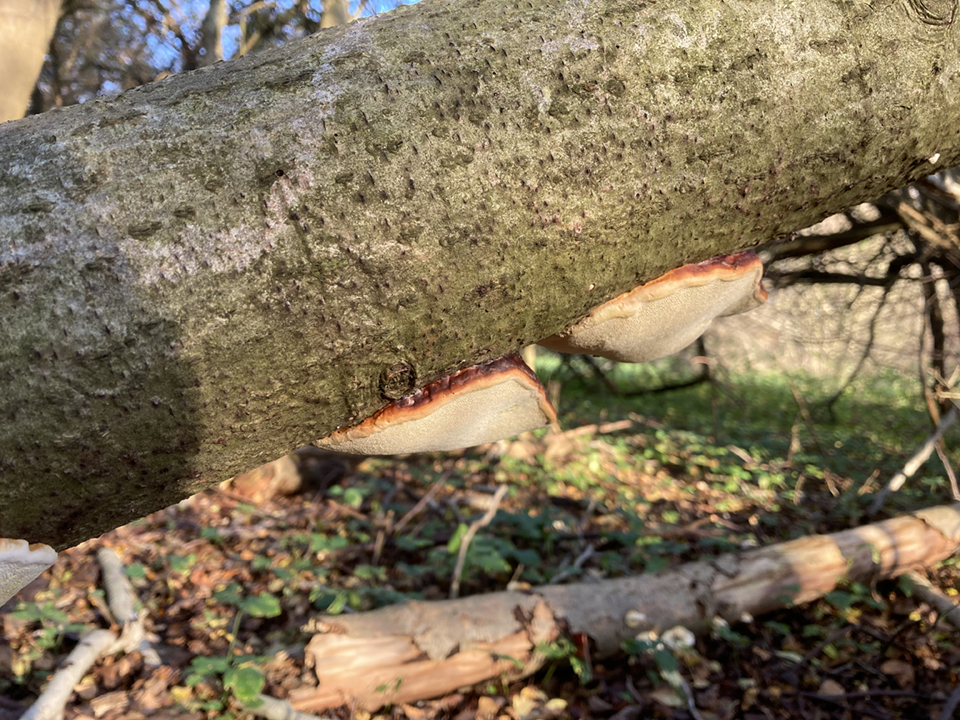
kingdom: Fungi
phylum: Basidiomycota
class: Agaricomycetes
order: Polyporales
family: Fomitopsidaceae
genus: Fomitopsis
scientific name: Fomitopsis pinicola
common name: randbæltet hovporesvamp
